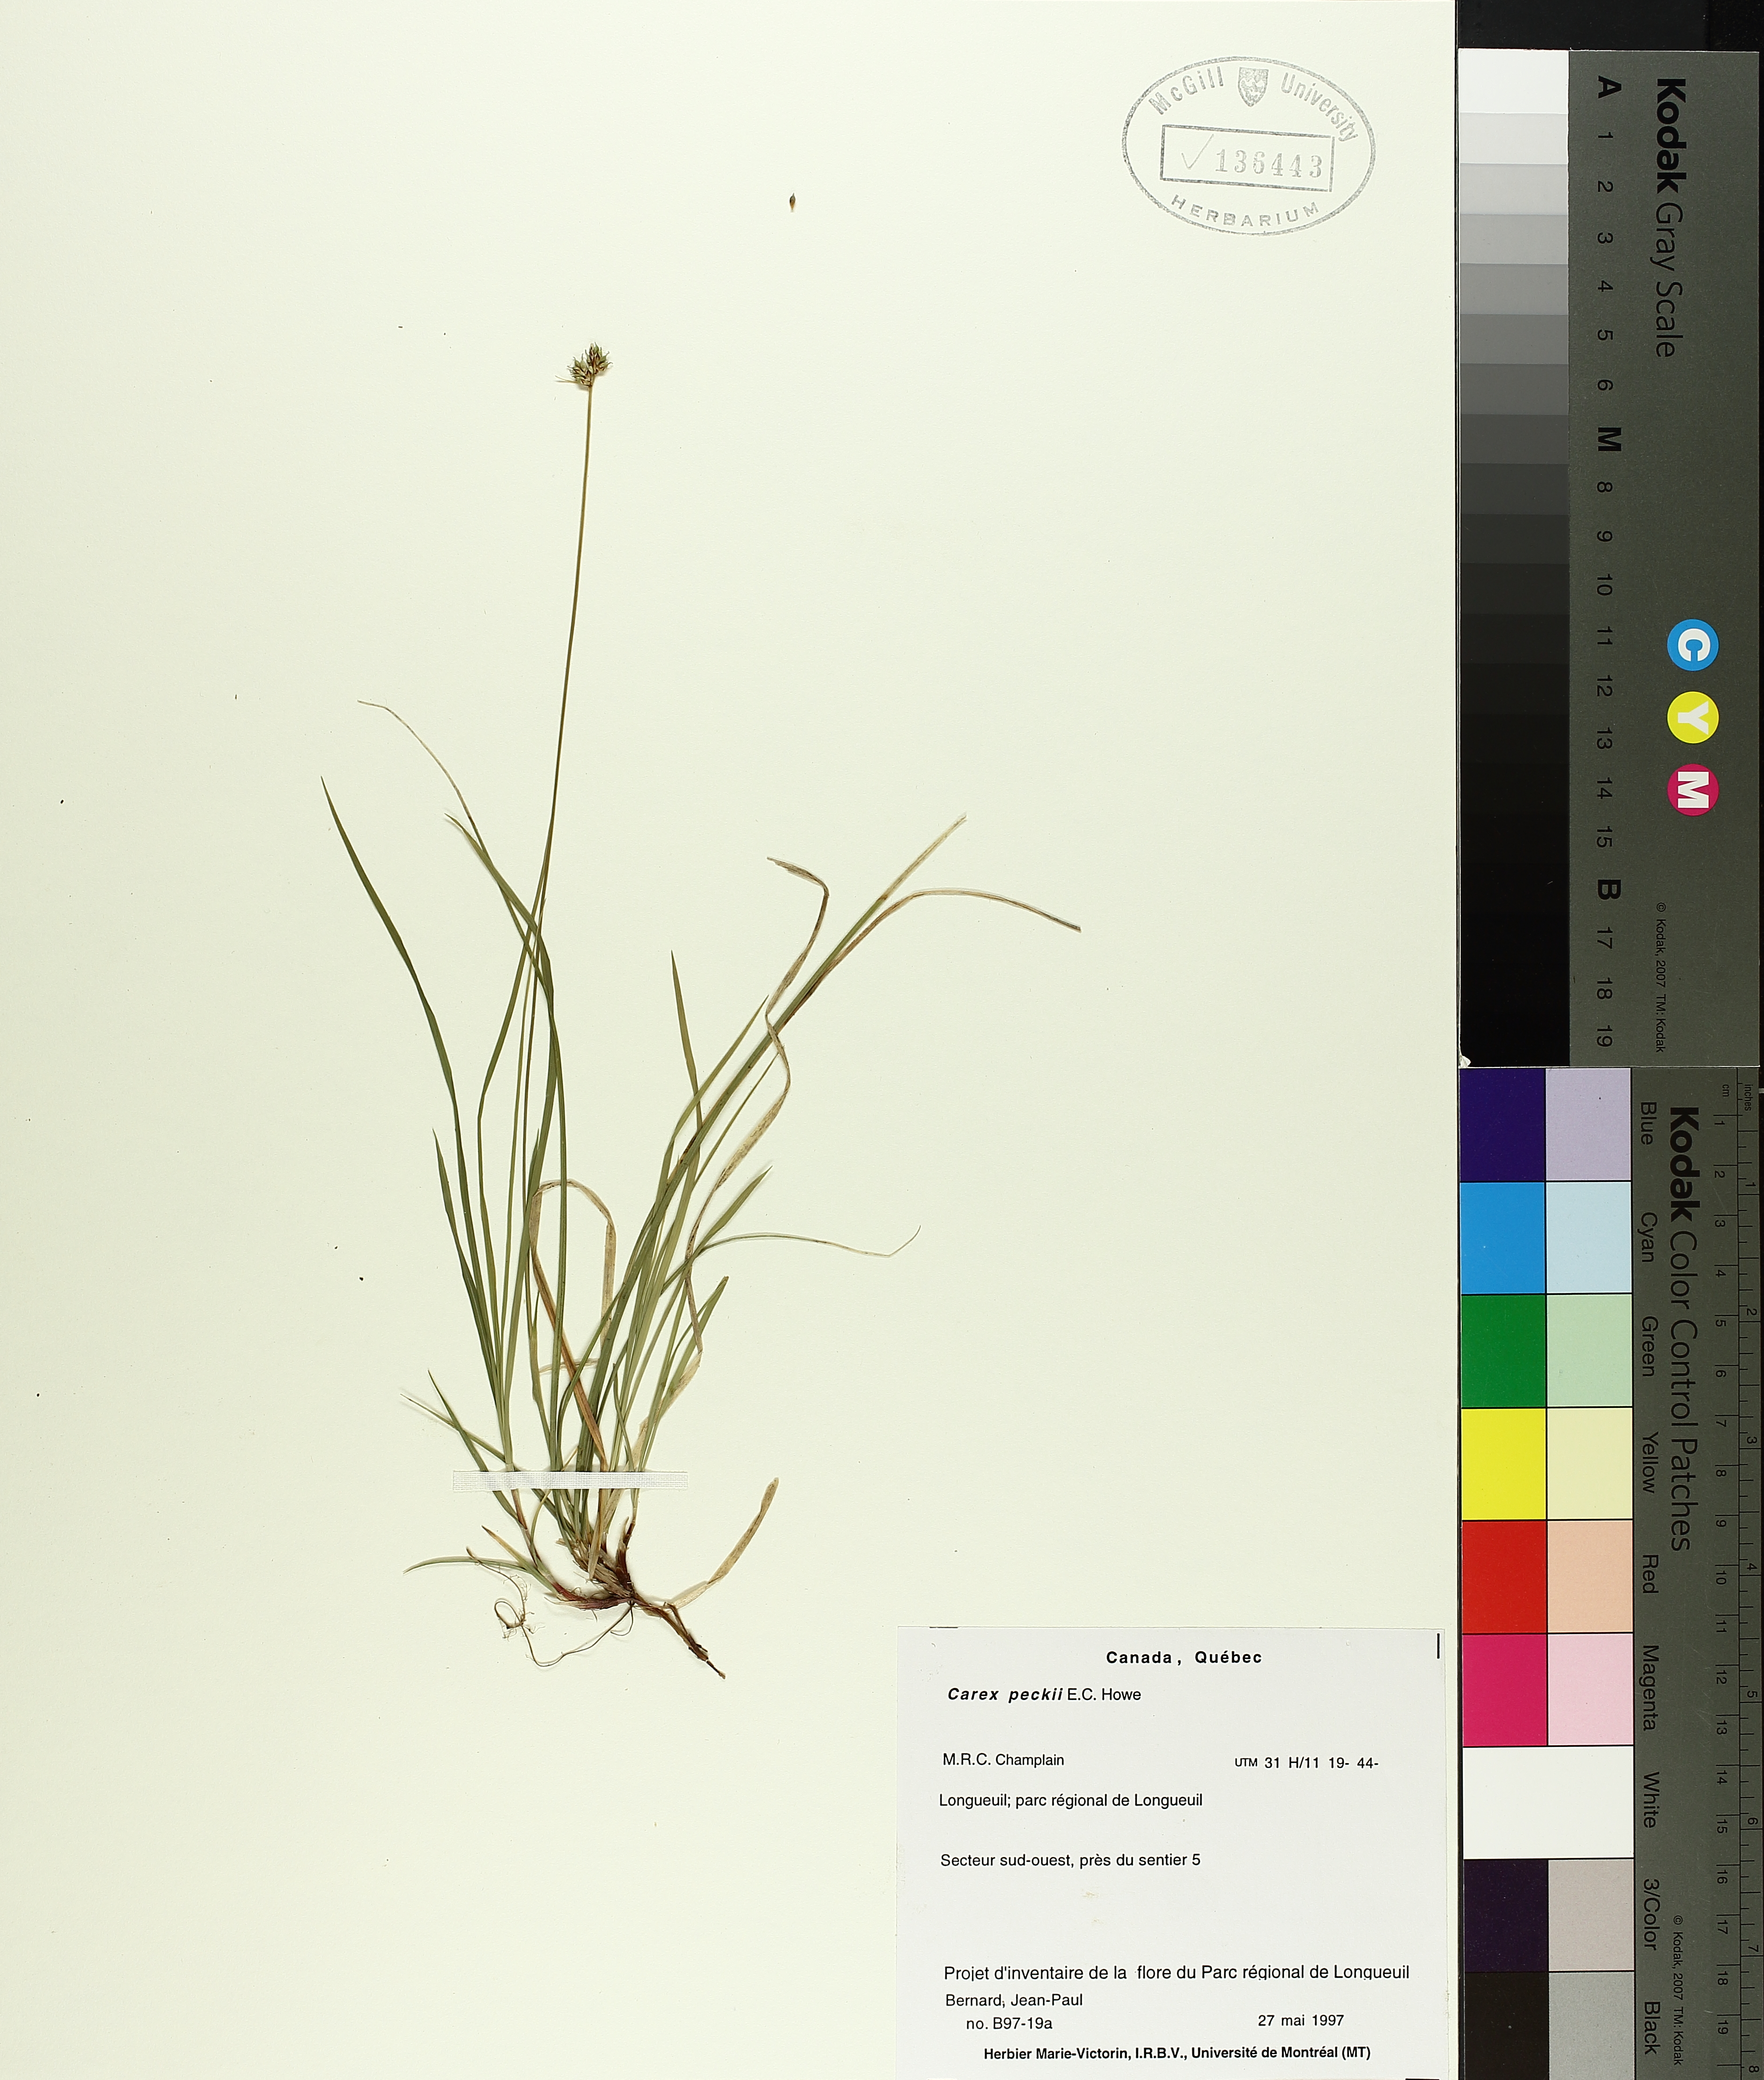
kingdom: Plantae
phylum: Tracheophyta
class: Liliopsida
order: Poales
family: Cyperaceae
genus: Carex
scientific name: Carex peckii
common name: Peck's oak sedge
